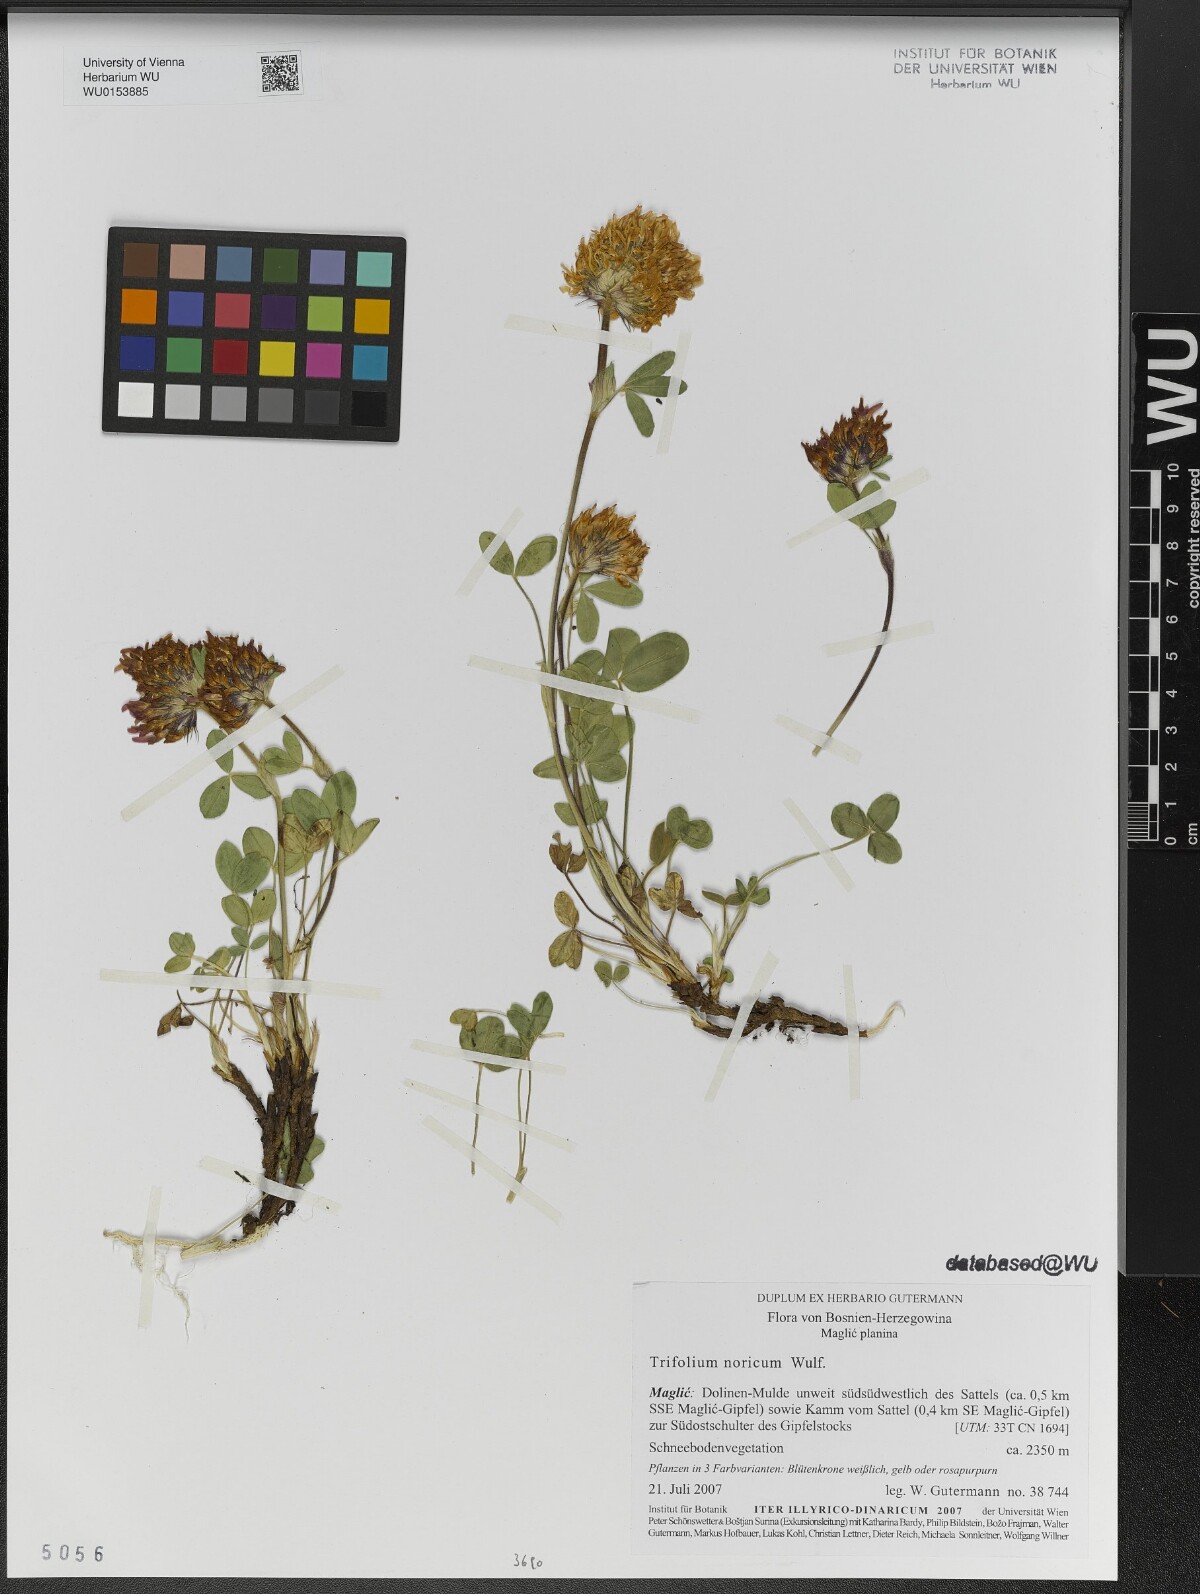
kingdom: Plantae
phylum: Tracheophyta
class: Magnoliopsida
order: Fabales
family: Fabaceae
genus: Trifolium
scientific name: Trifolium noricum
